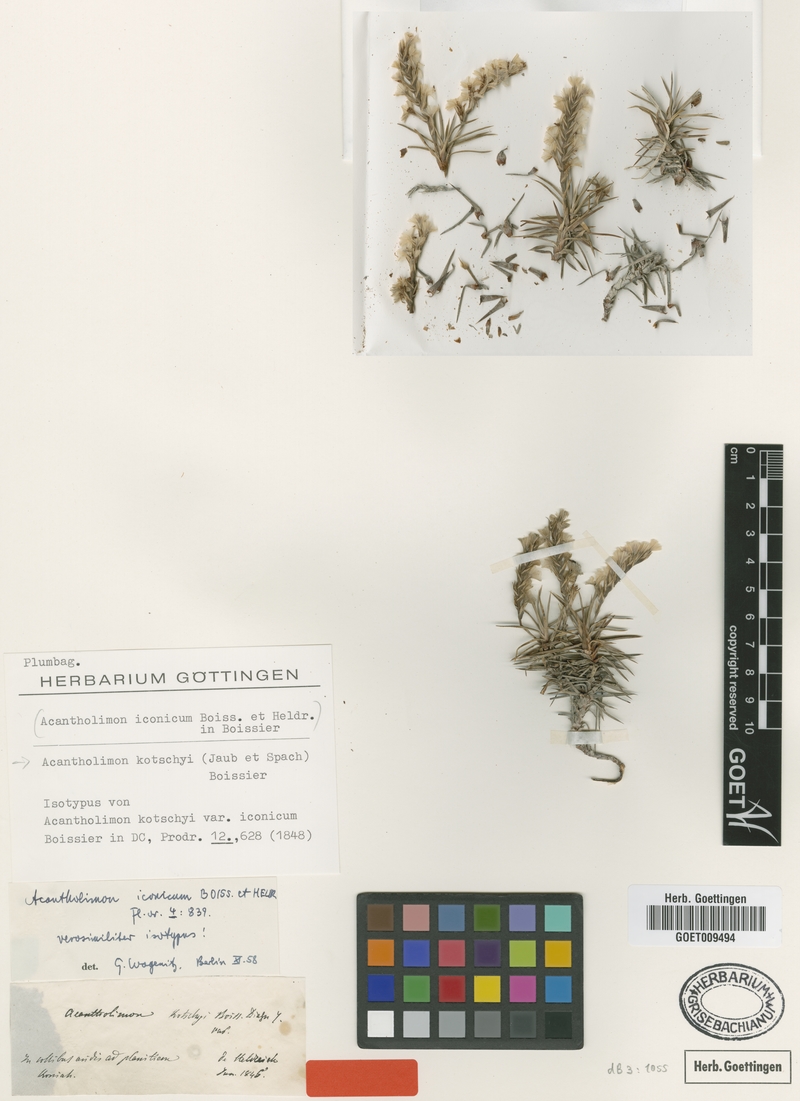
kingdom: Plantae
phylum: Tracheophyta
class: Magnoliopsida
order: Caryophyllales
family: Plumbaginaceae
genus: Acantholimon
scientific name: Acantholimon kotschyi
